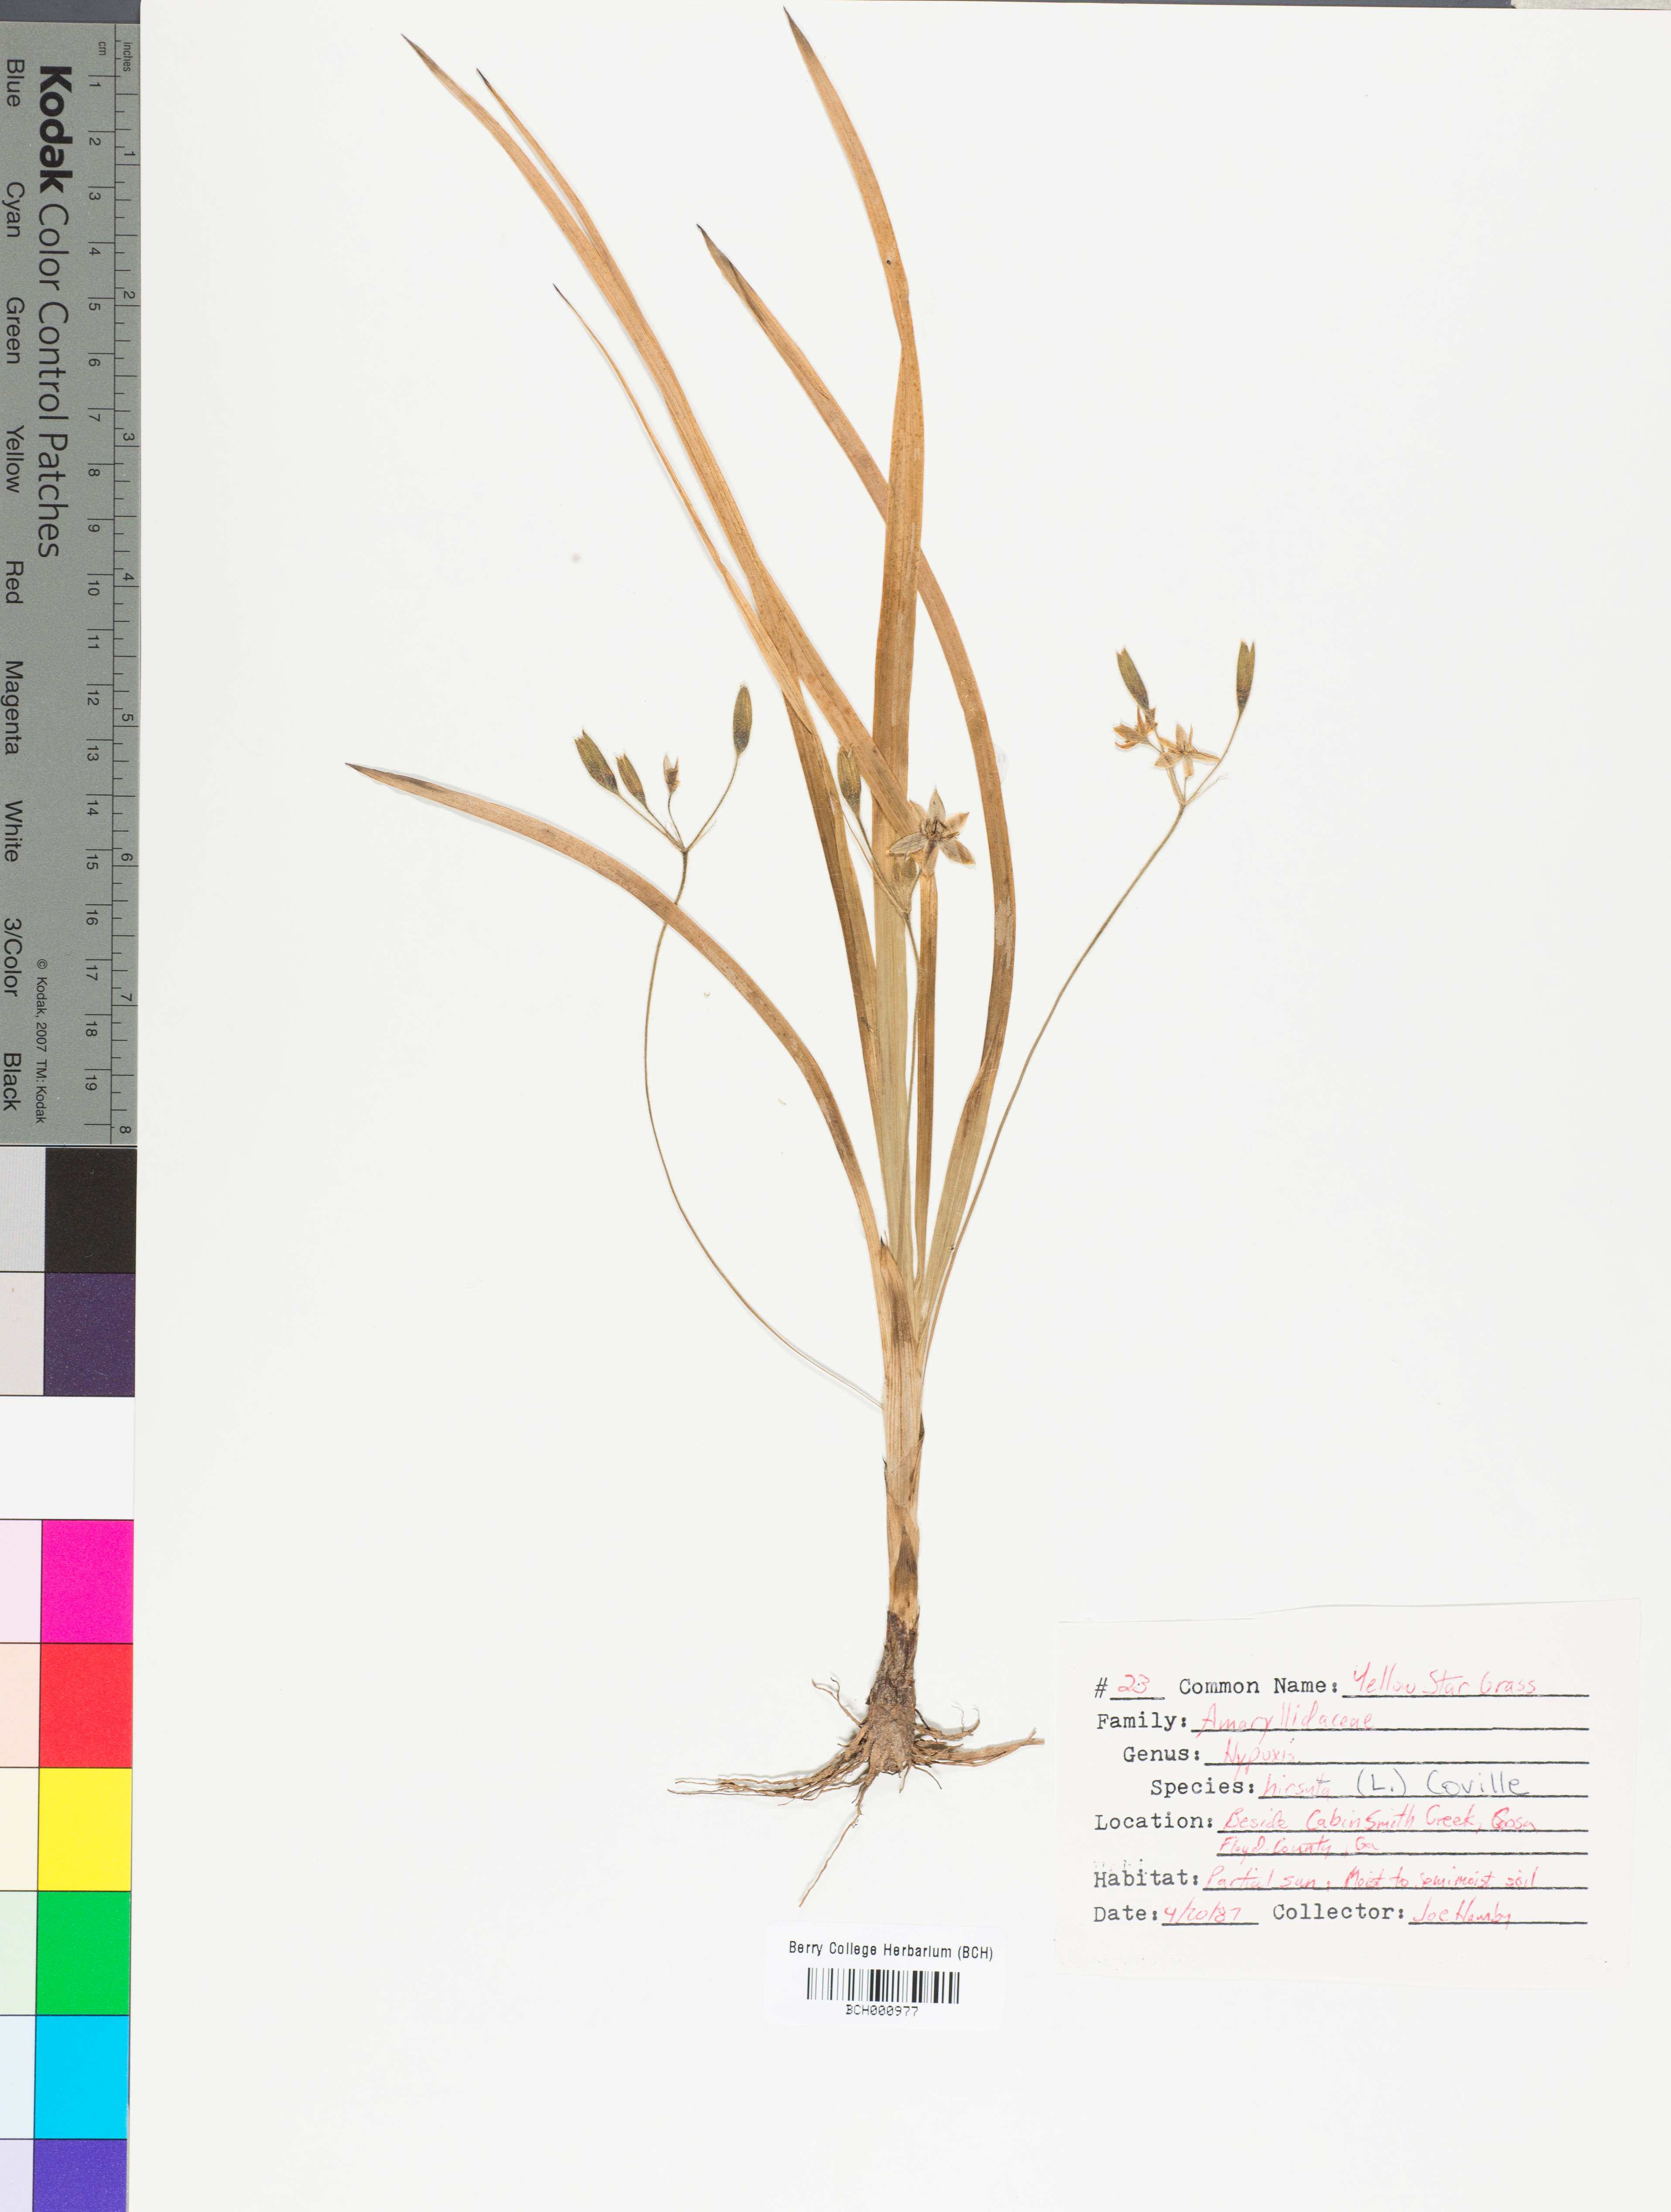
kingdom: Plantae
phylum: Tracheophyta
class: Liliopsida
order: Asparagales
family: Hypoxidaceae
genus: Hypoxis
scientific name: Hypoxis hirsuta
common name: Common goldstar
